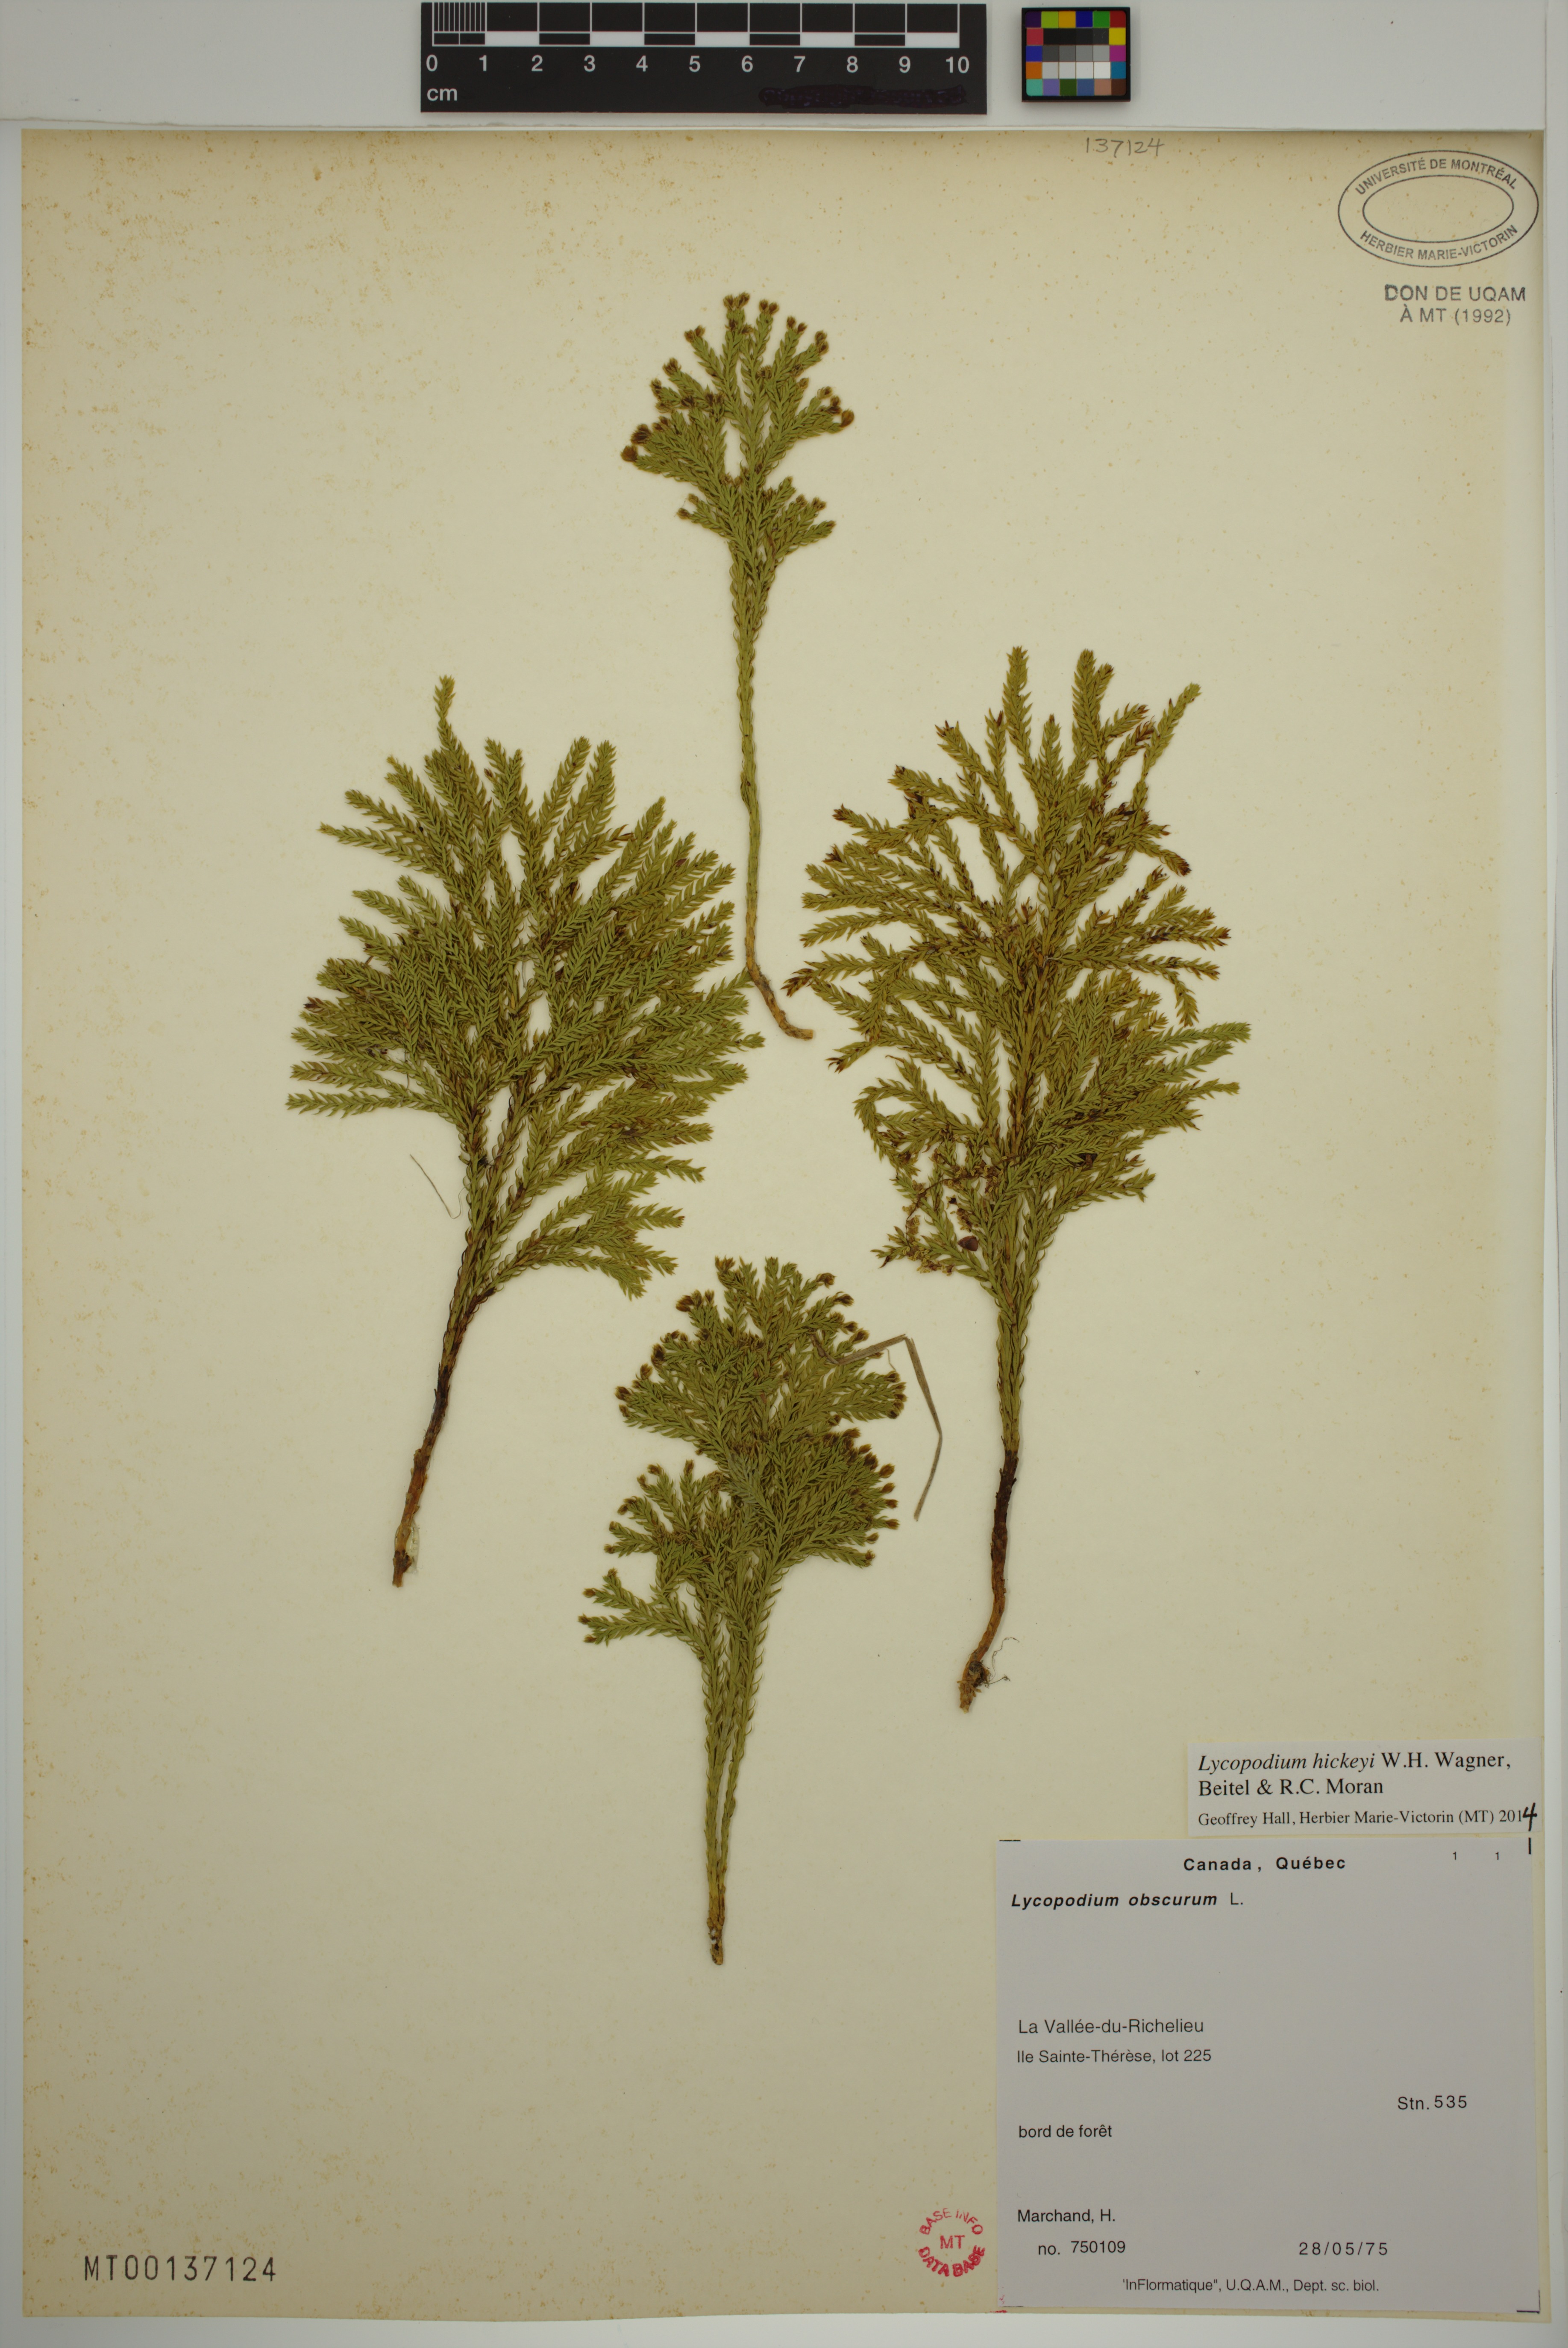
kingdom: Plantae
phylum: Tracheophyta
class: Lycopodiopsida
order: Lycopodiales
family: Lycopodiaceae
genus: Dendrolycopodium
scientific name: Dendrolycopodium hickeyi
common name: Hickey's clubmoss
